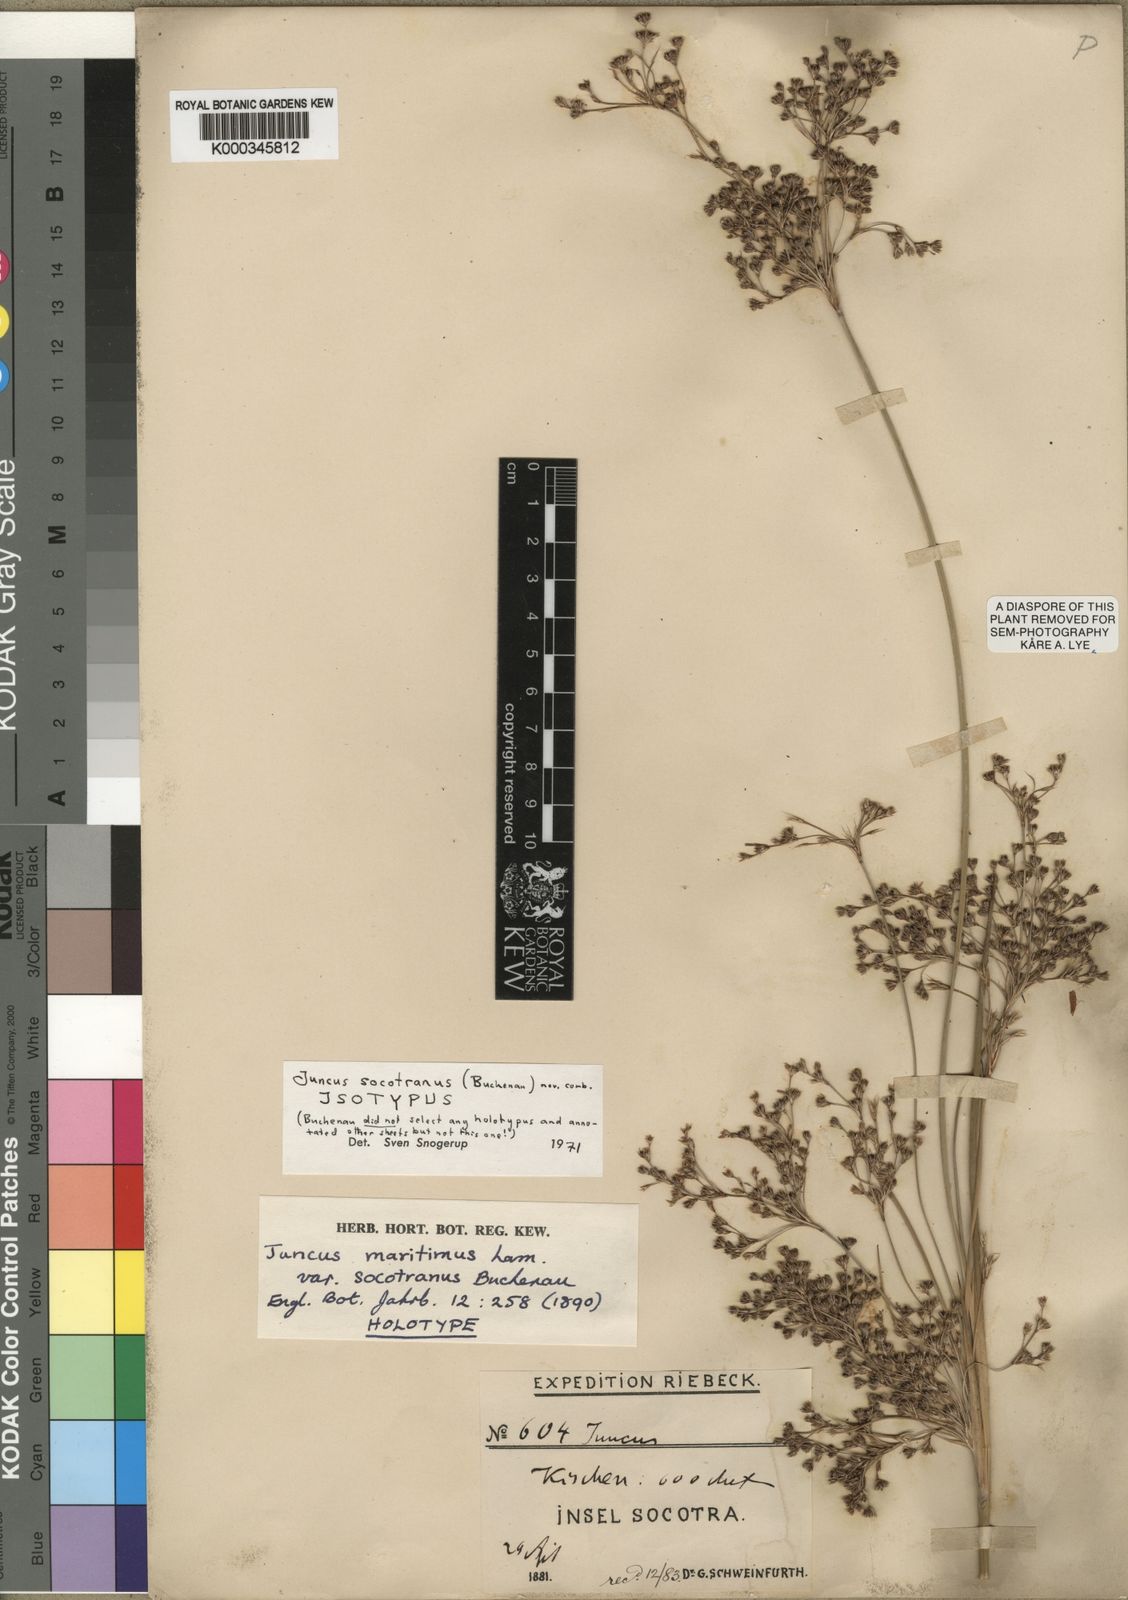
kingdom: Plantae
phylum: Tracheophyta
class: Liliopsida
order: Poales
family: Juncaceae
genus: Juncus
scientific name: Juncus socotranus
